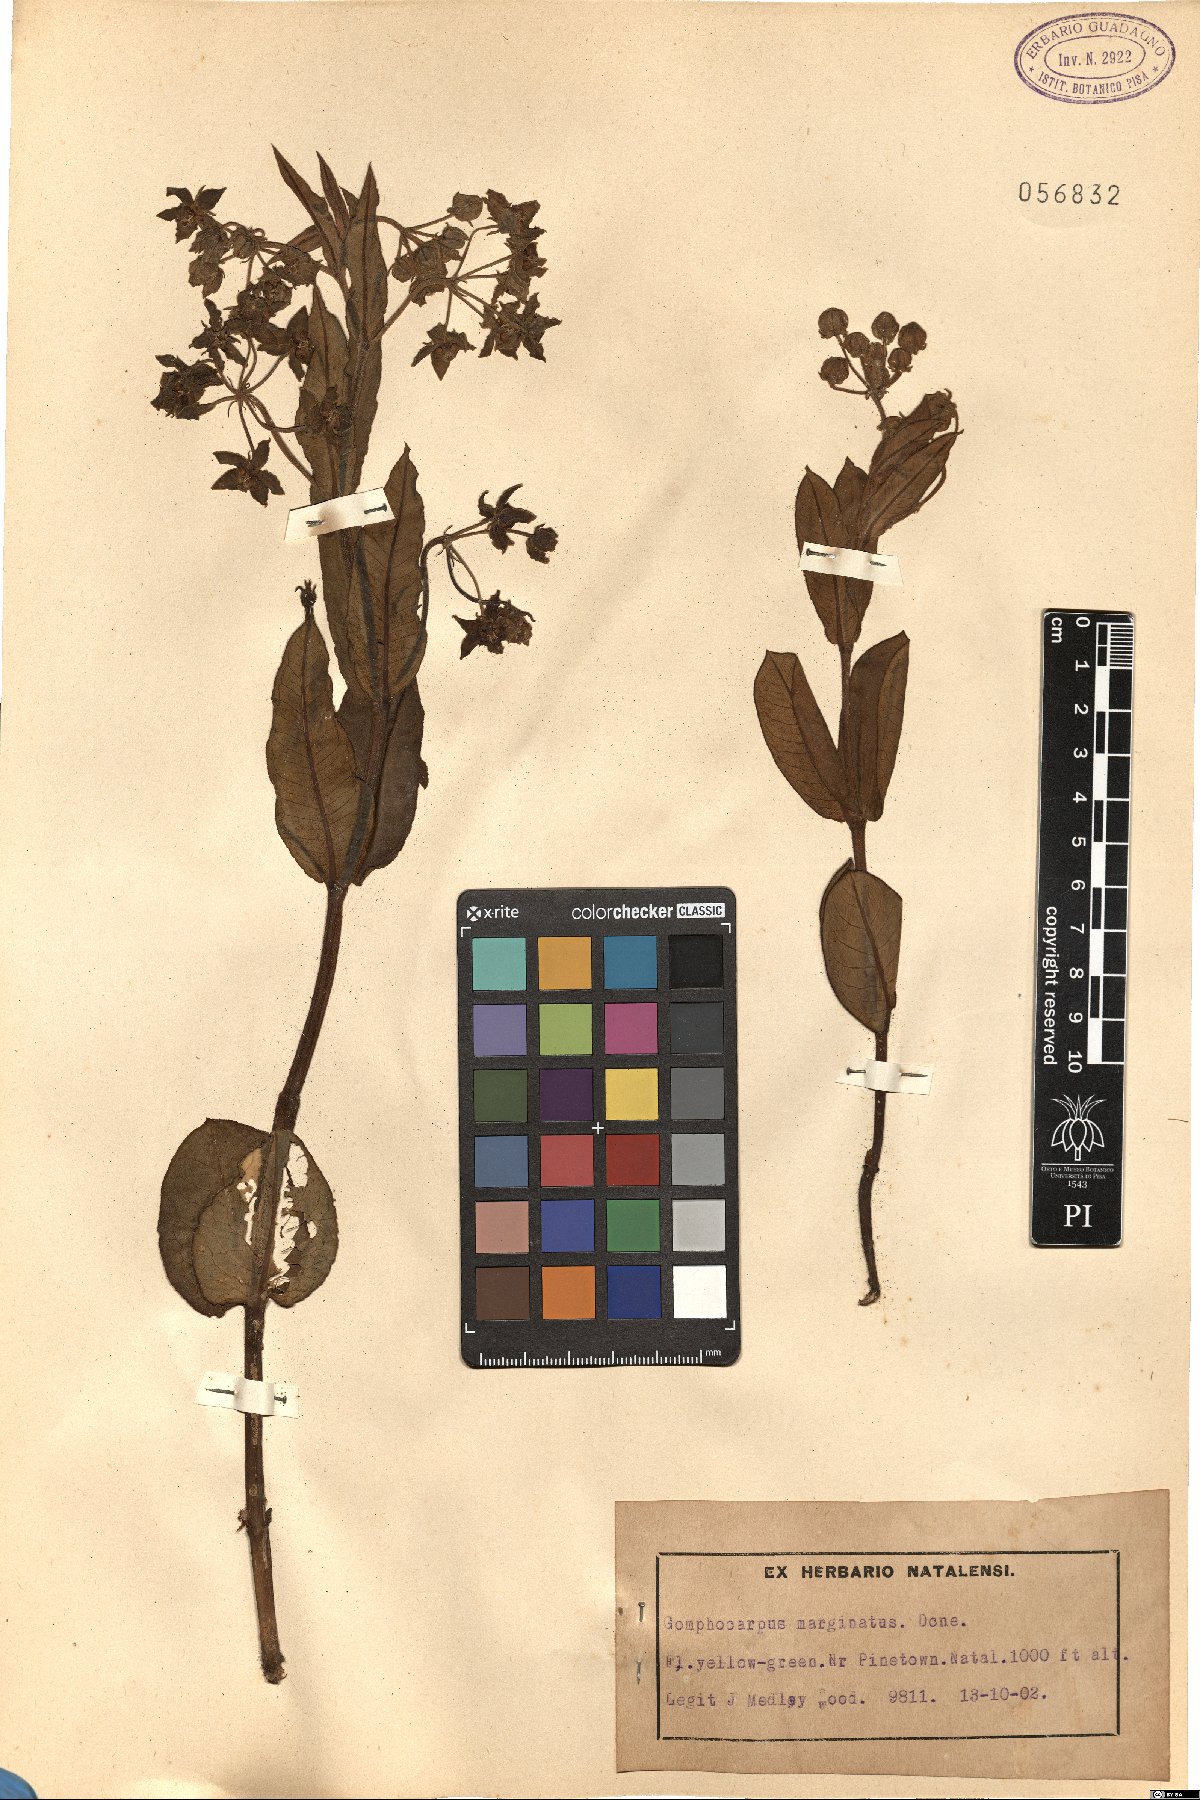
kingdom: Plantae
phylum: Tracheophyta
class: Magnoliopsida
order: Gentianales
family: Apocynaceae
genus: Woodia
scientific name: Woodia mucronata
